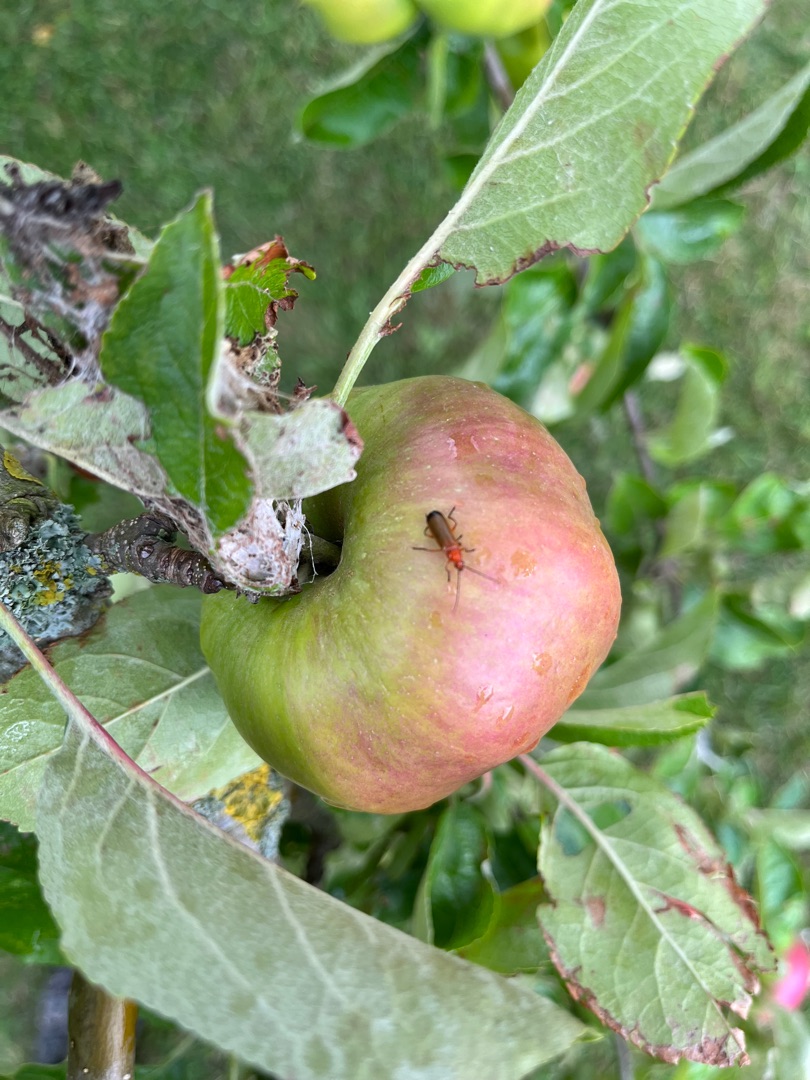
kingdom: Animalia
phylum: Arthropoda
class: Insecta
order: Coleoptera
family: Cantharidae
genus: Rhagonycha
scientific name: Rhagonycha fulva
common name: Præstebille
